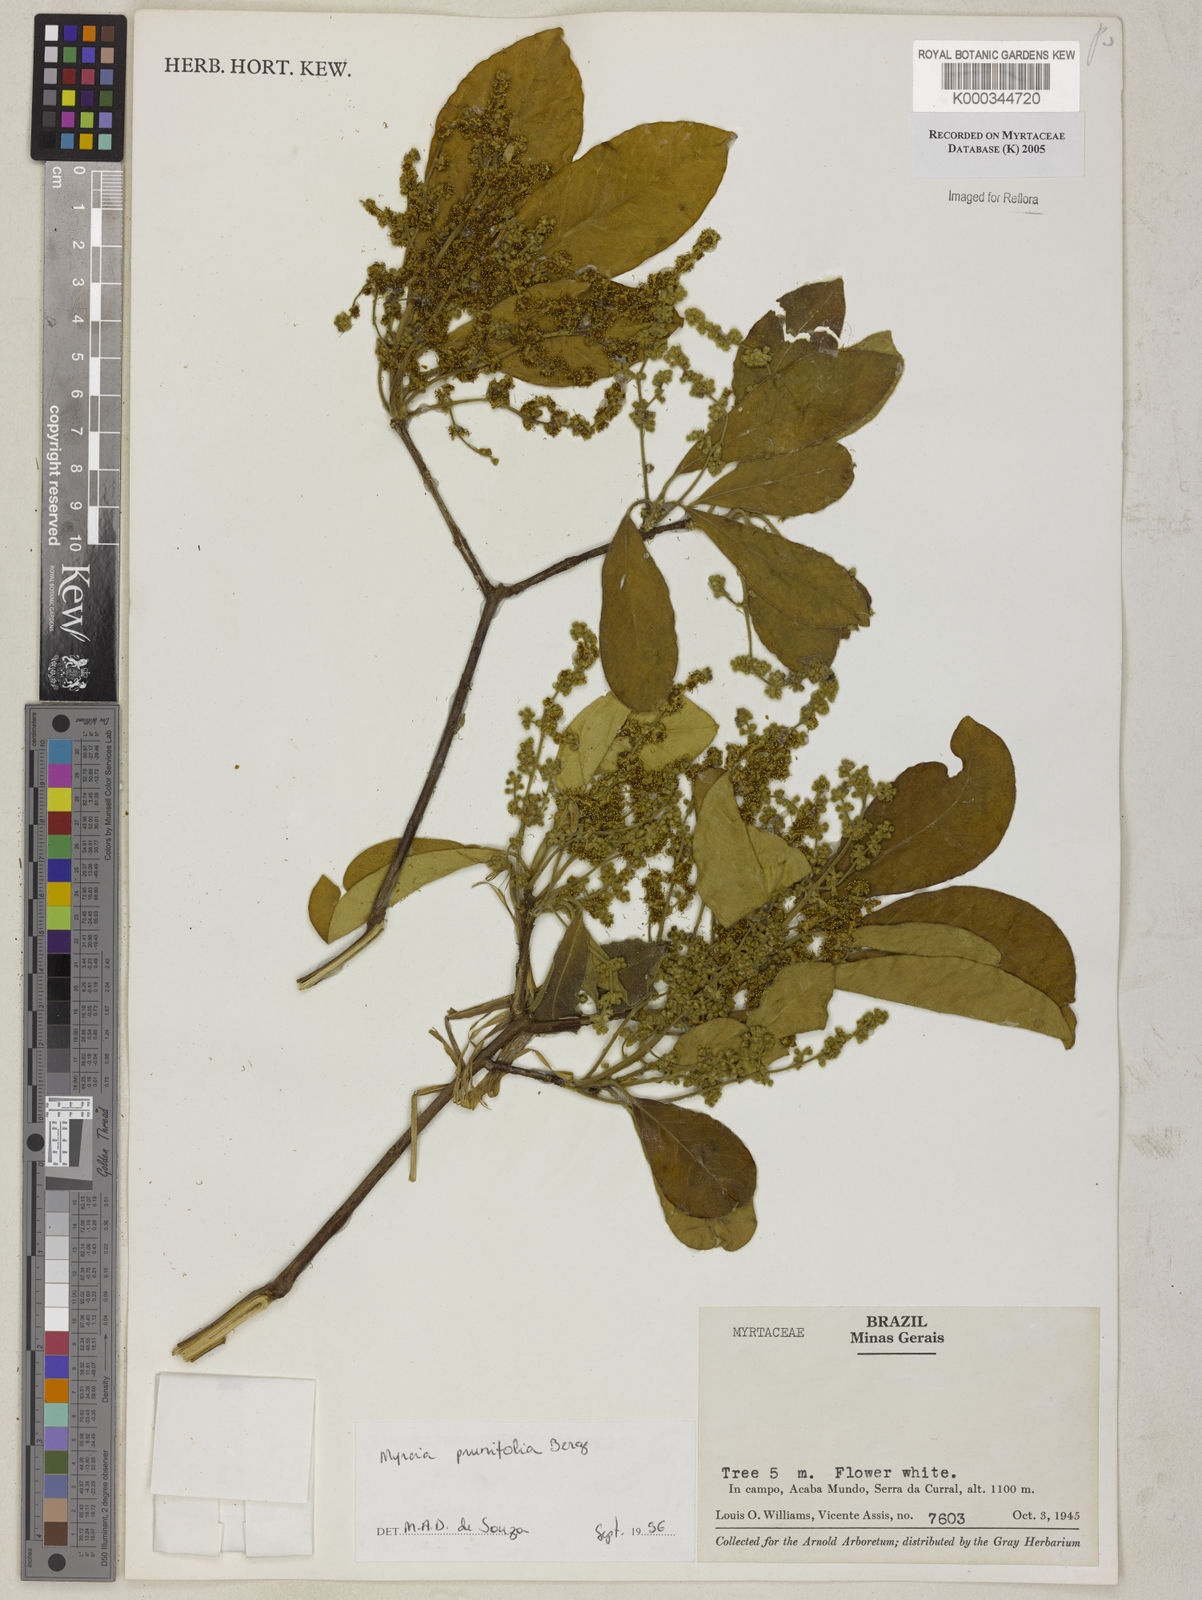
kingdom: Plantae
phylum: Tracheophyta
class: Magnoliopsida
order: Myrtales
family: Myrtaceae
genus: Myrcia
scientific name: Myrcia tomentosa
